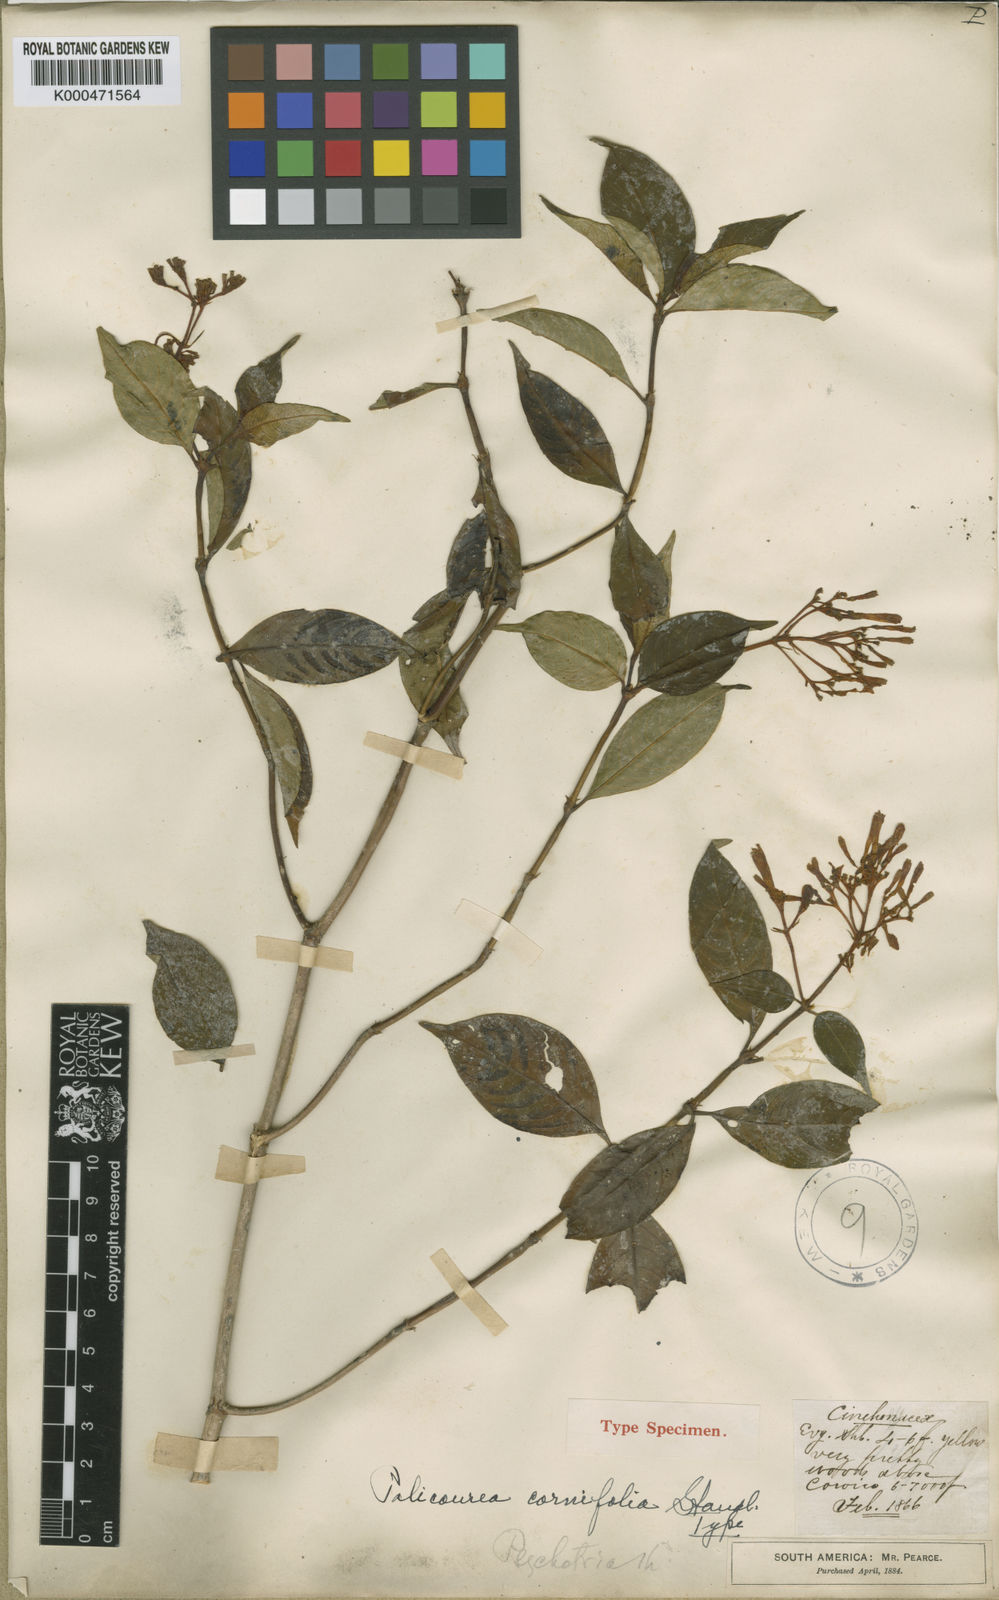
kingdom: Plantae
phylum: Tracheophyta
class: Magnoliopsida
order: Gentianales
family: Rubiaceae
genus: Palicourea
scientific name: Palicourea buchtienii
